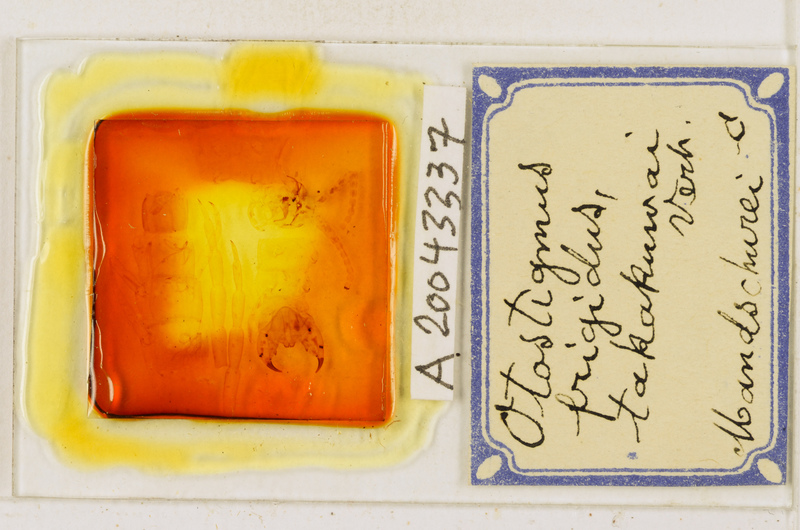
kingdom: Animalia
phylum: Arthropoda
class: Chilopoda
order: Scolopendromorpha
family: Scolopendridae
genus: Otostigmus
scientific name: Otostigmus politus
